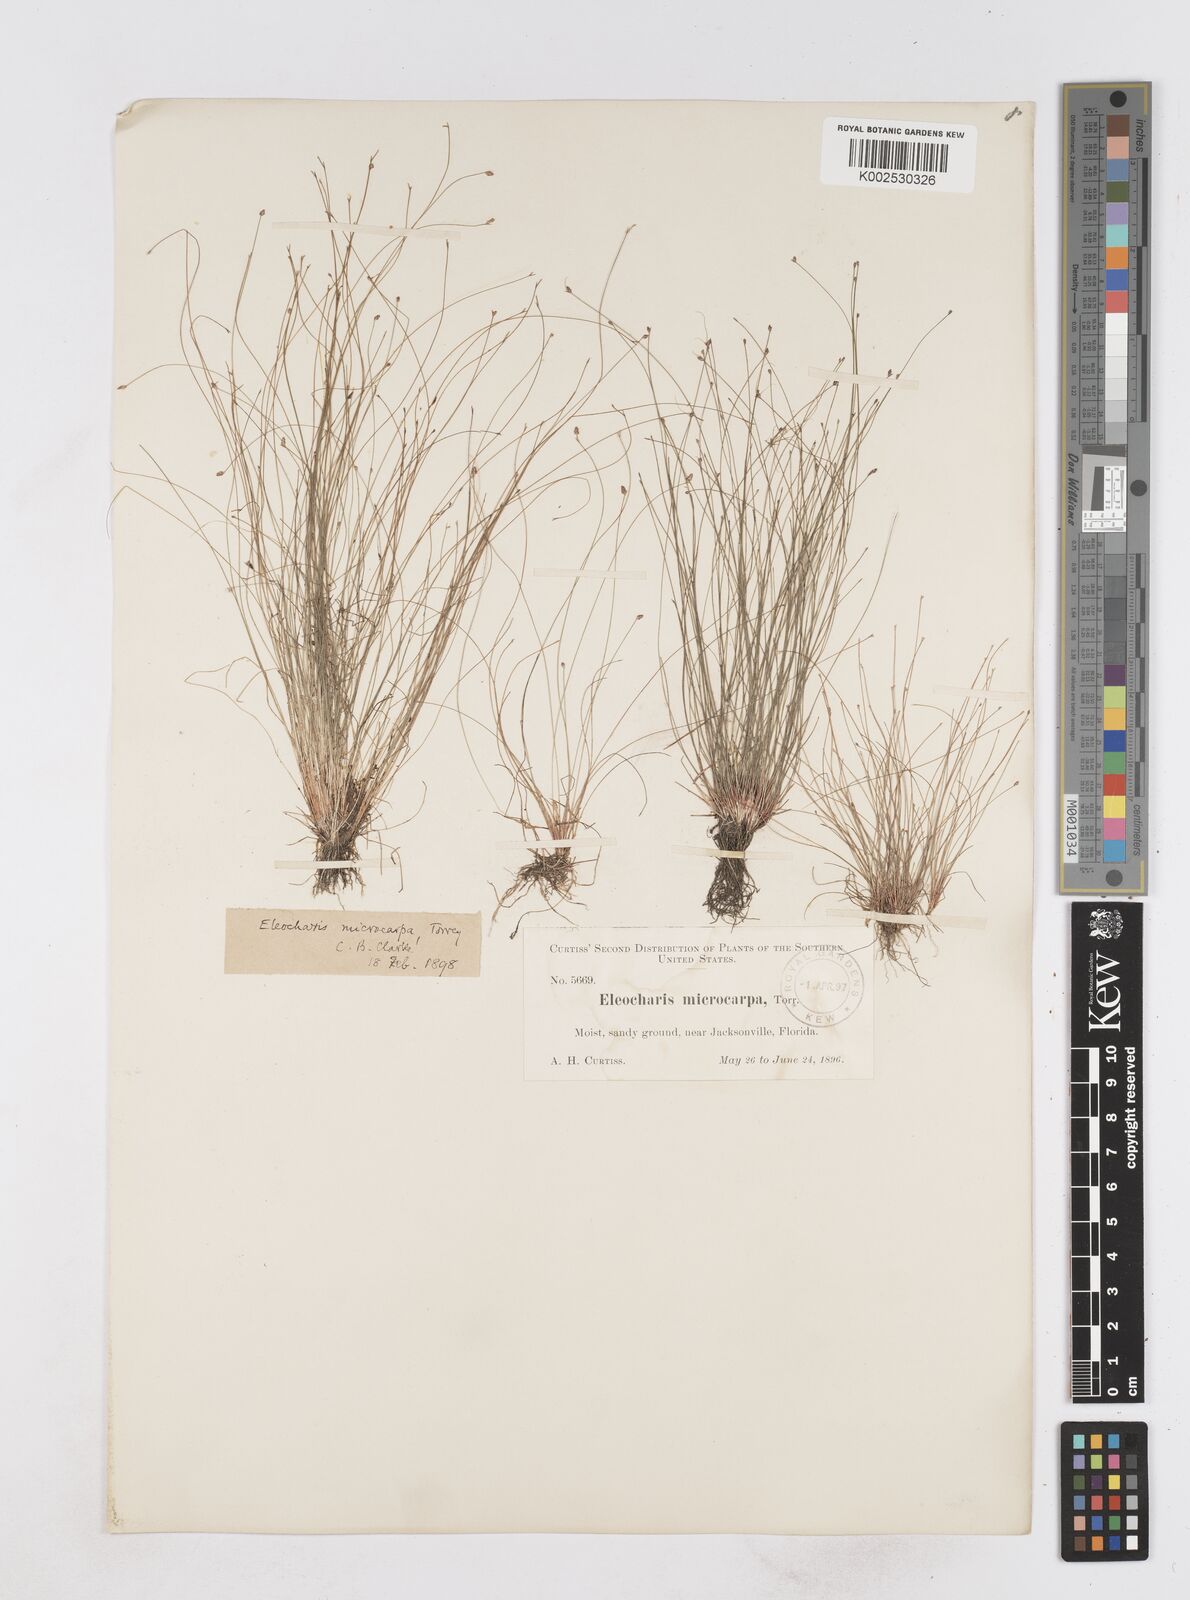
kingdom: Plantae
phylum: Tracheophyta
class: Liliopsida
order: Poales
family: Cyperaceae
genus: Eleocharis
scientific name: Eleocharis microcarpa
